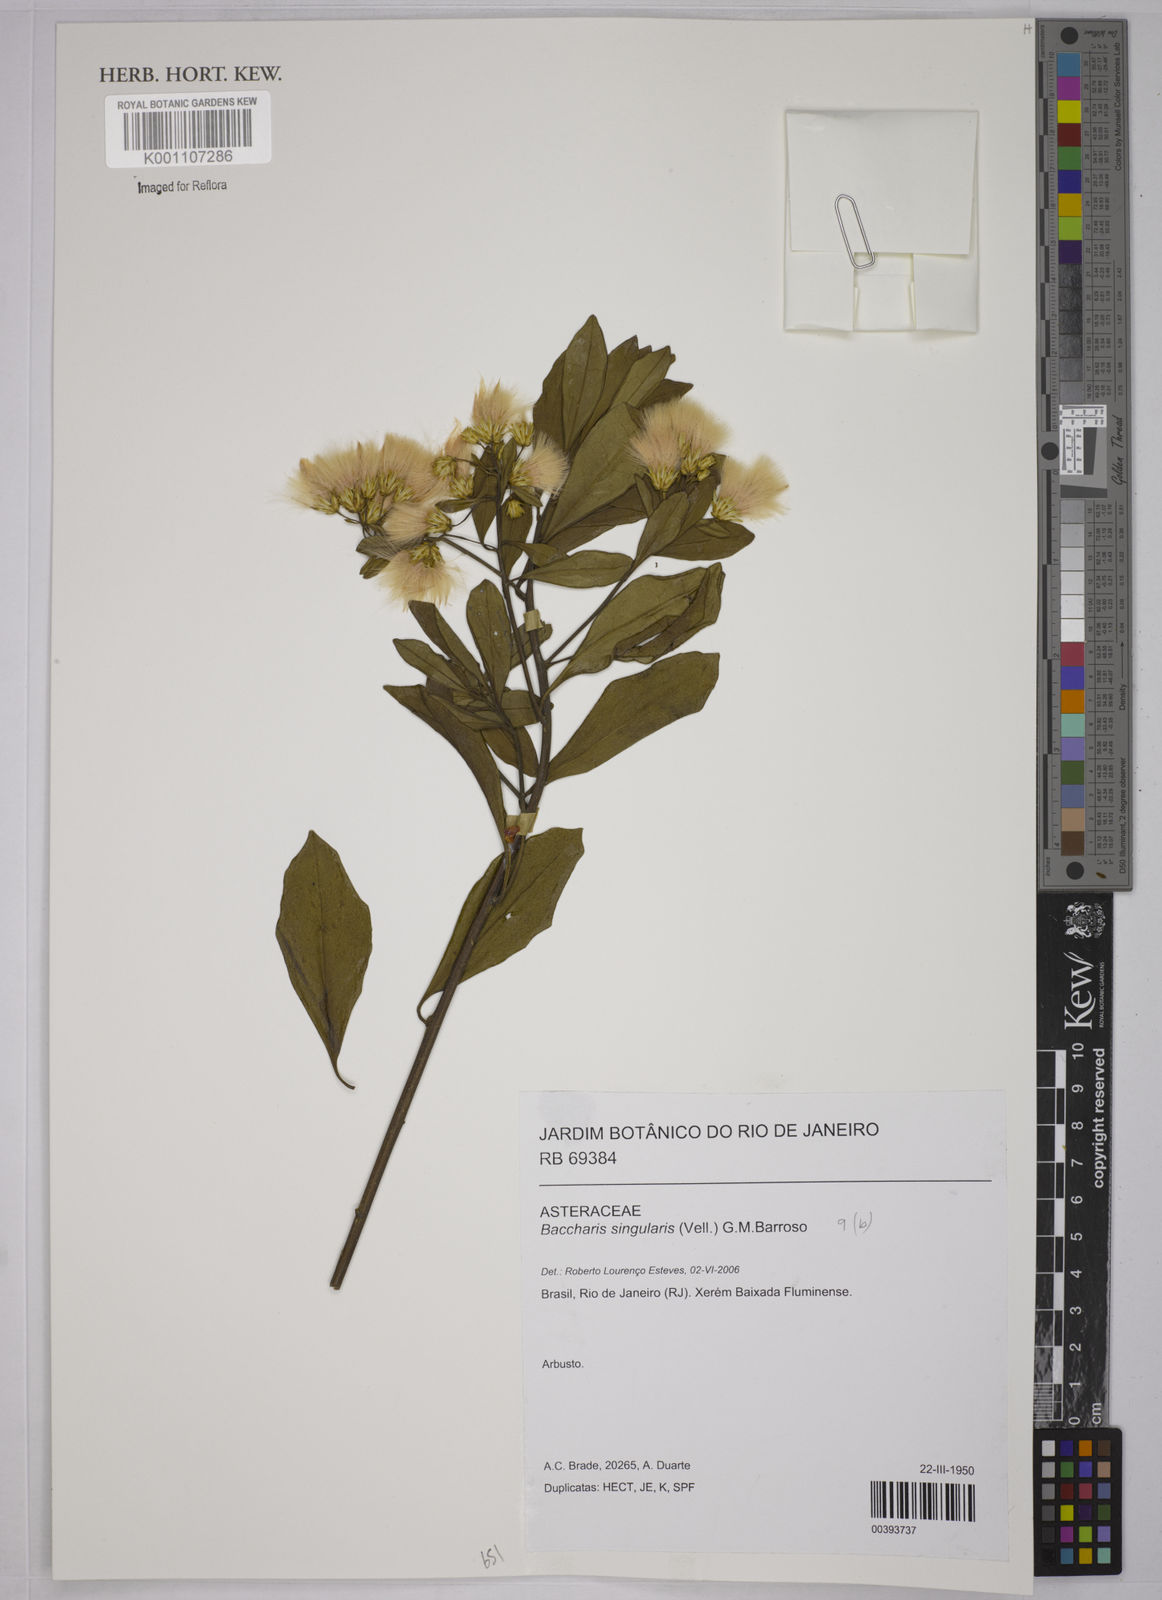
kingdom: Plantae
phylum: Tracheophyta
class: Magnoliopsida
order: Asterales
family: Asteraceae
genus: Baccharis
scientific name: Baccharis singularis
